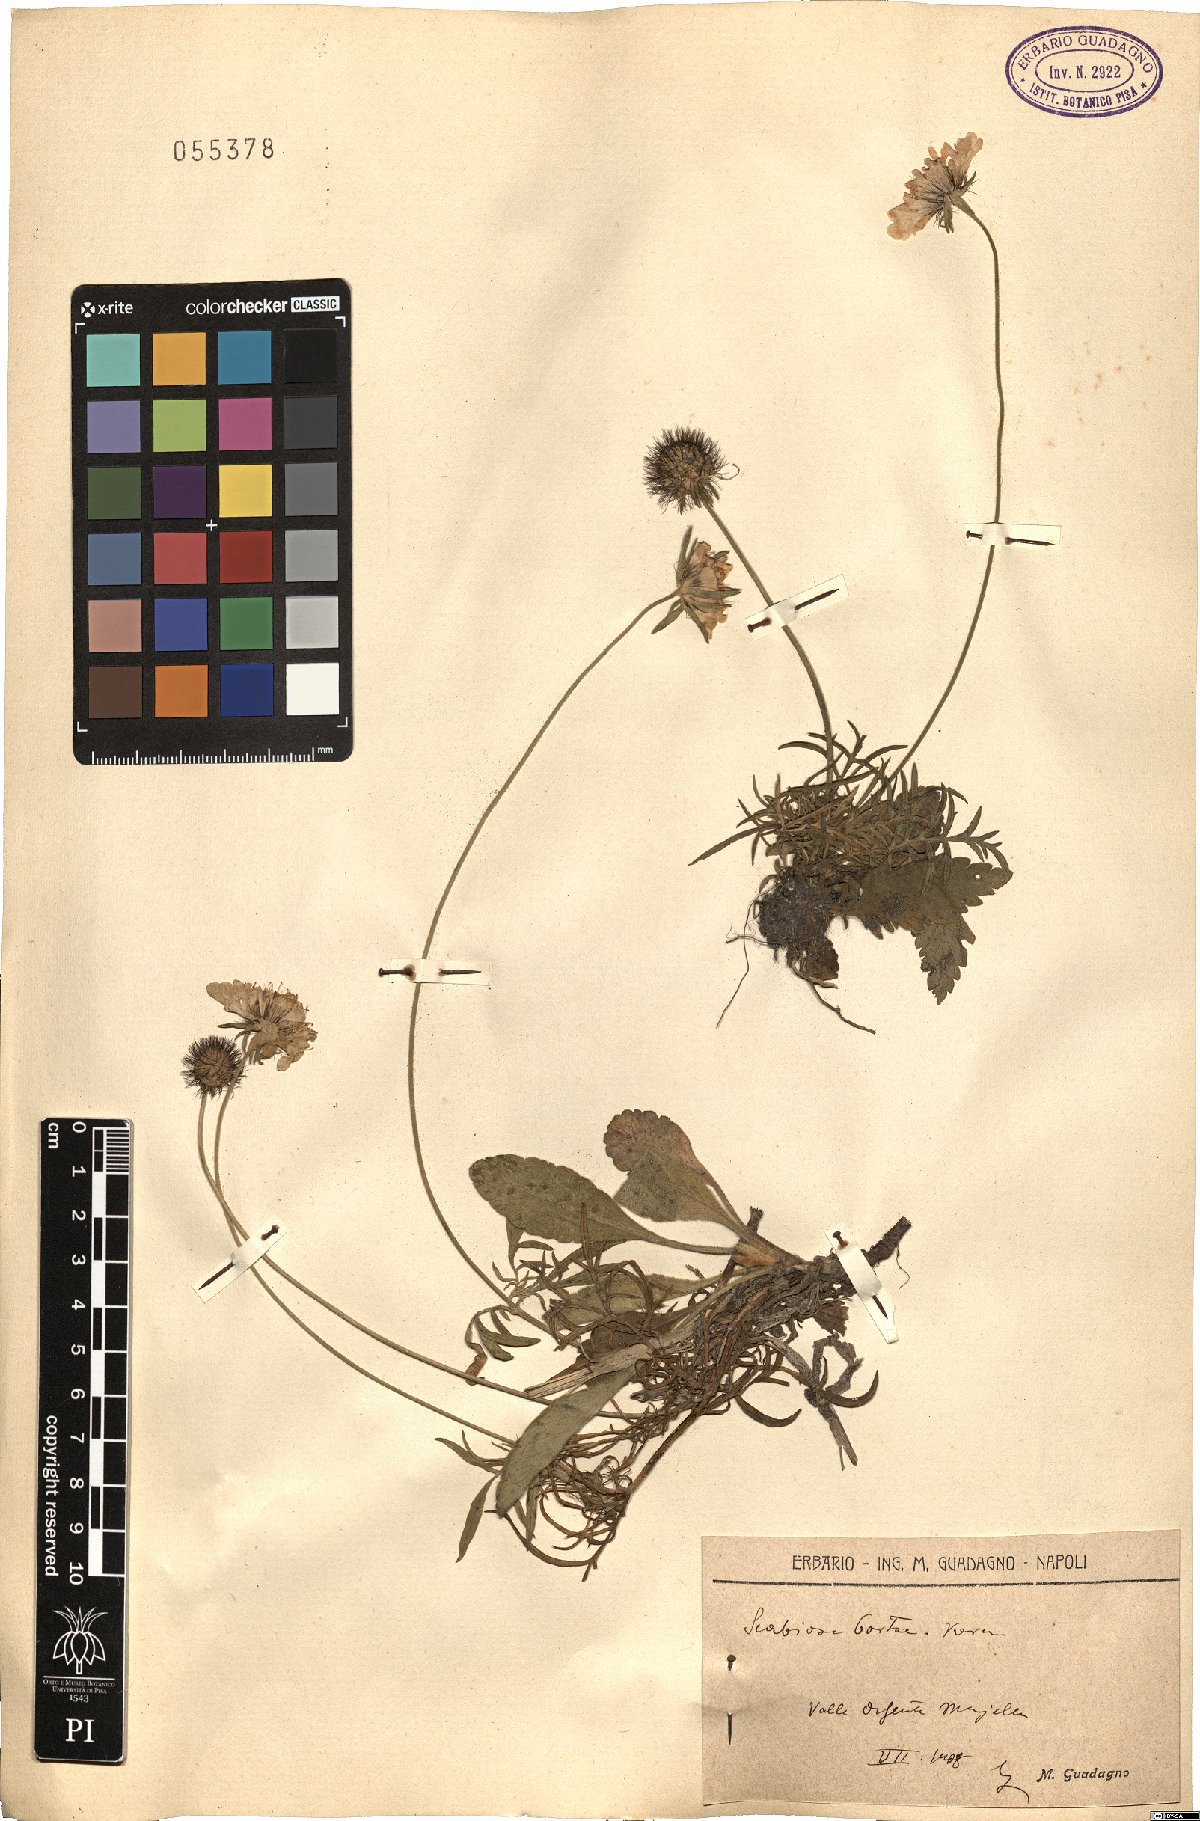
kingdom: Plantae
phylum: Tracheophyta
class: Magnoliopsida
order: Dipsacales
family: Caprifoliaceae
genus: Scabiosa
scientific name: Scabiosa taygetea
